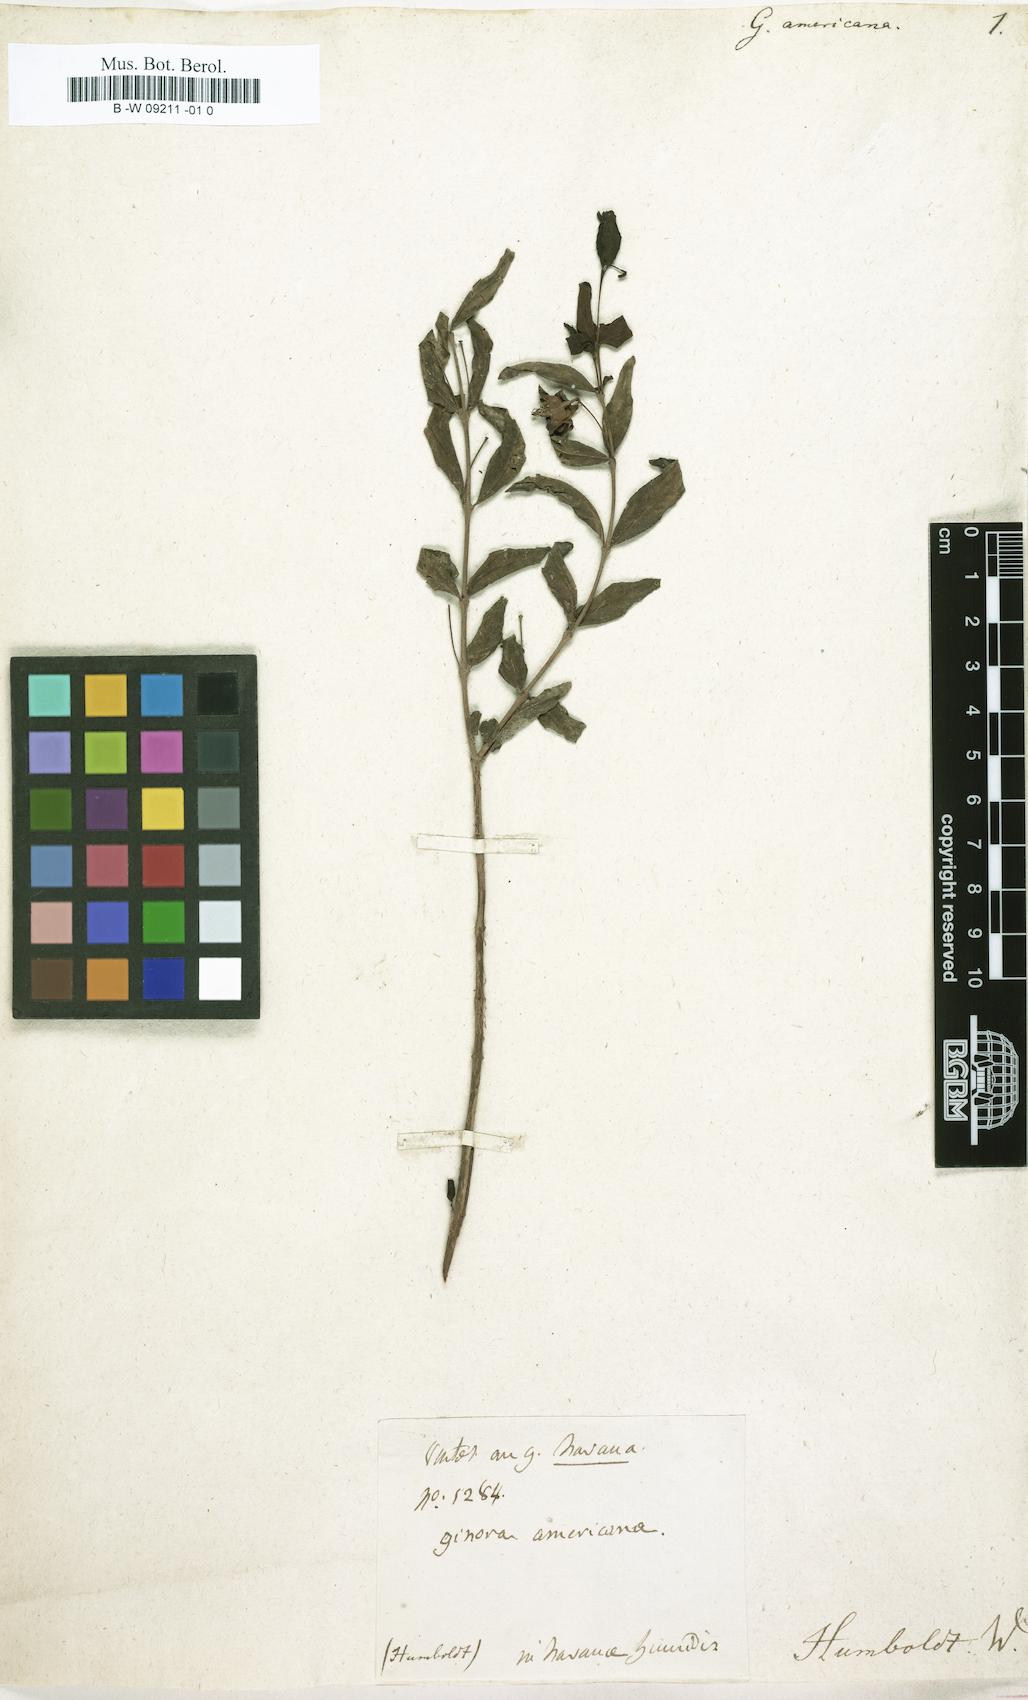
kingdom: Plantae
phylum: Tracheophyta
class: Magnoliopsida
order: Myrtales
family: Lythraceae
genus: Ginoria
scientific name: Ginoria americana
